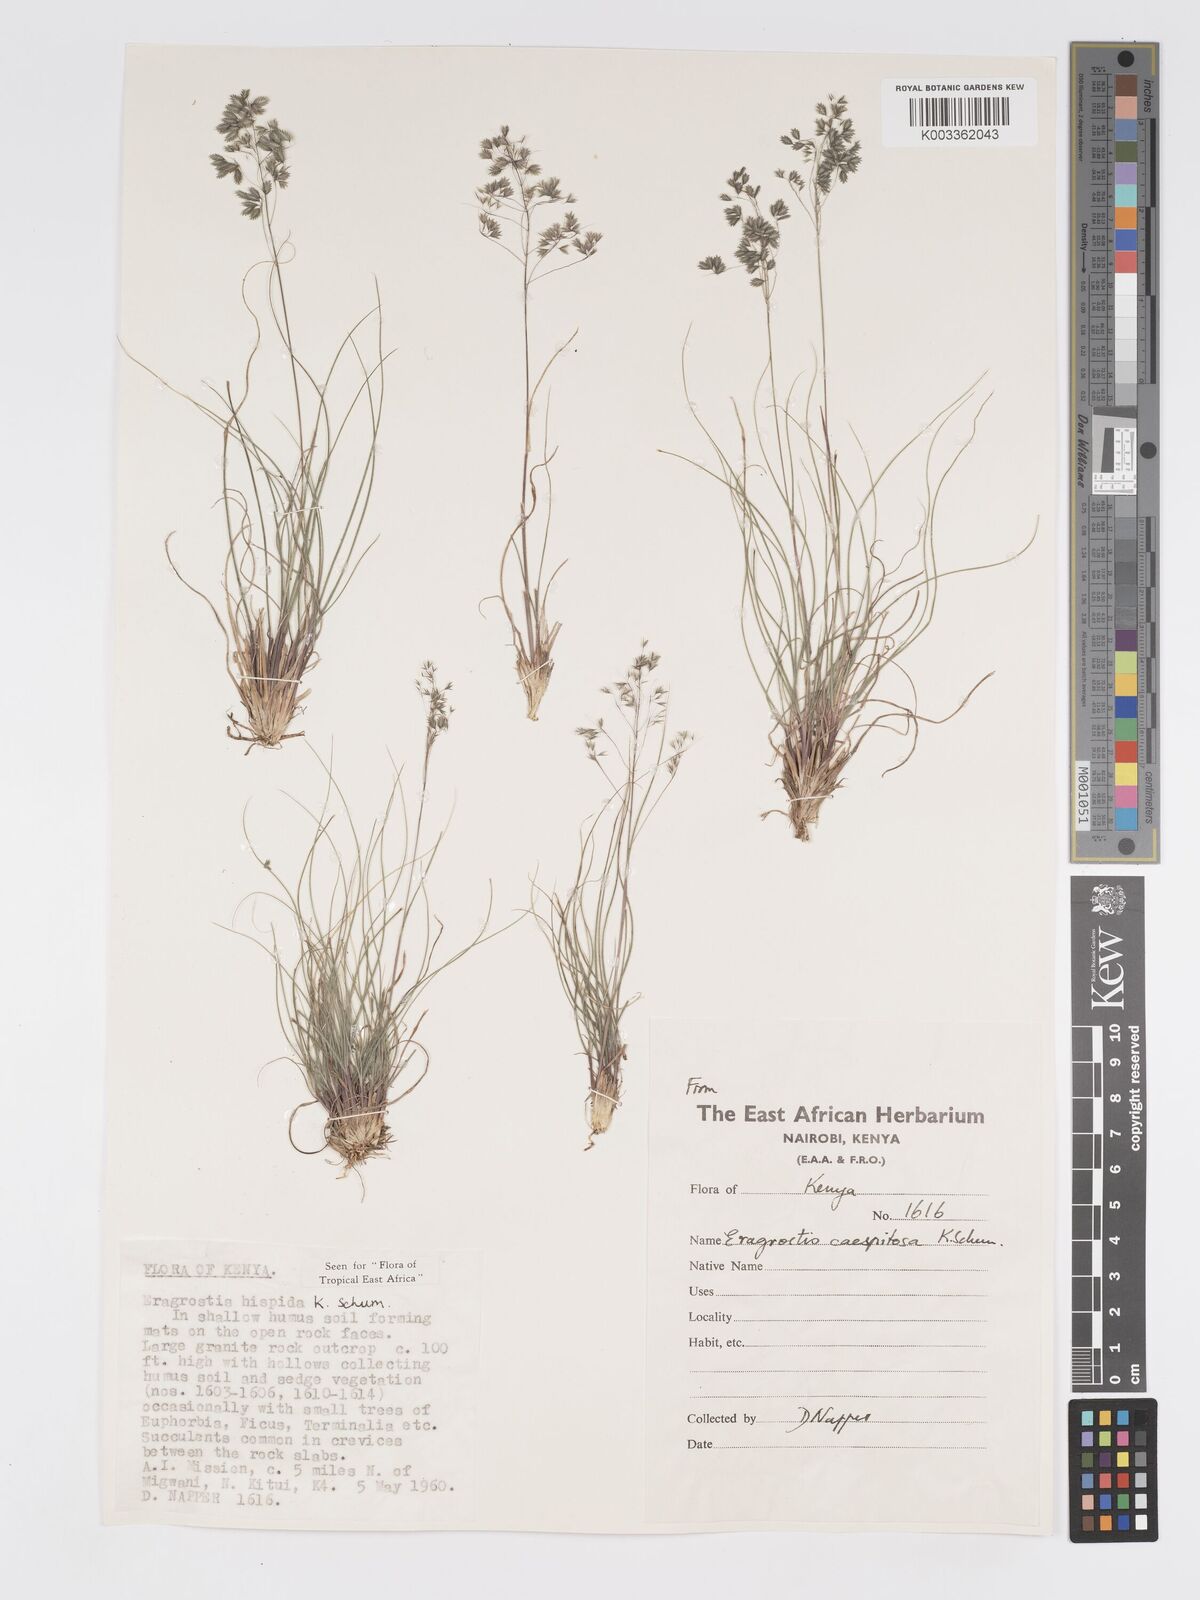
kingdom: Plantae
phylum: Tracheophyta
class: Liliopsida
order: Poales
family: Poaceae
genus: Eragrostis
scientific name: Eragrostis hispida
